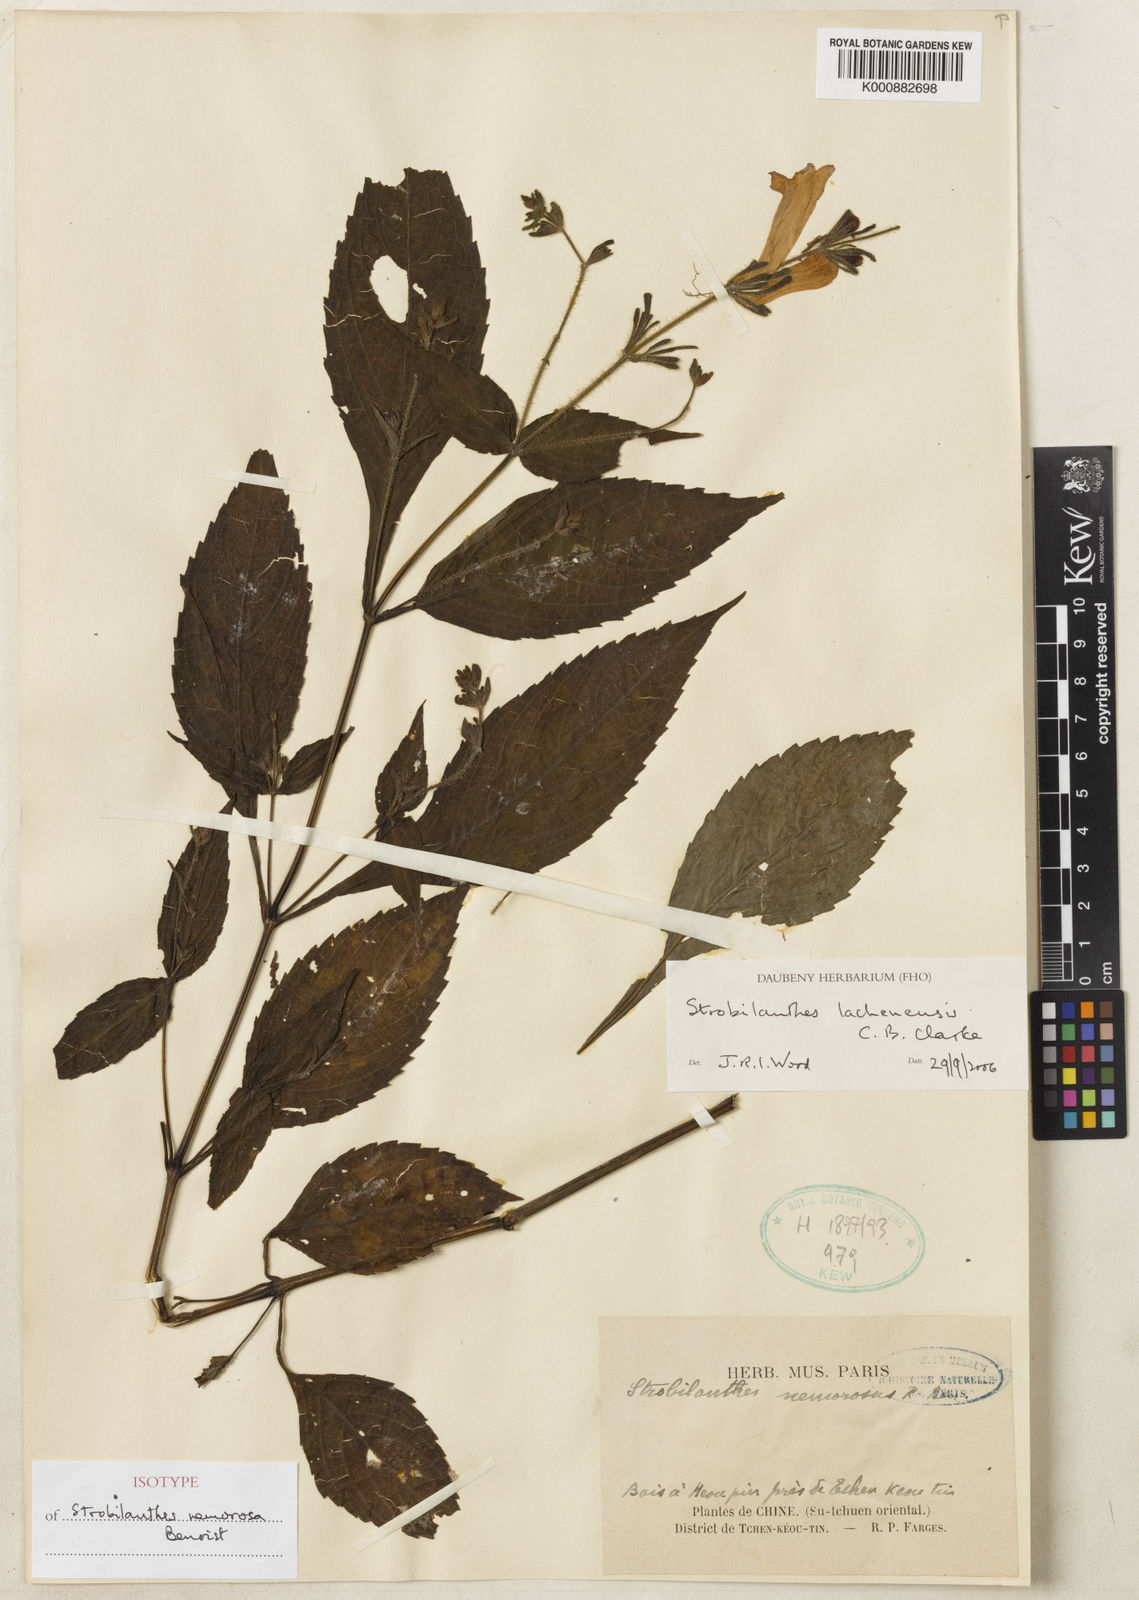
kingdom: Plantae
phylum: Tracheophyta
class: Magnoliopsida
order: Lamiales
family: Acanthaceae
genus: Strobilanthes
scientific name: Strobilanthes lachenensis
